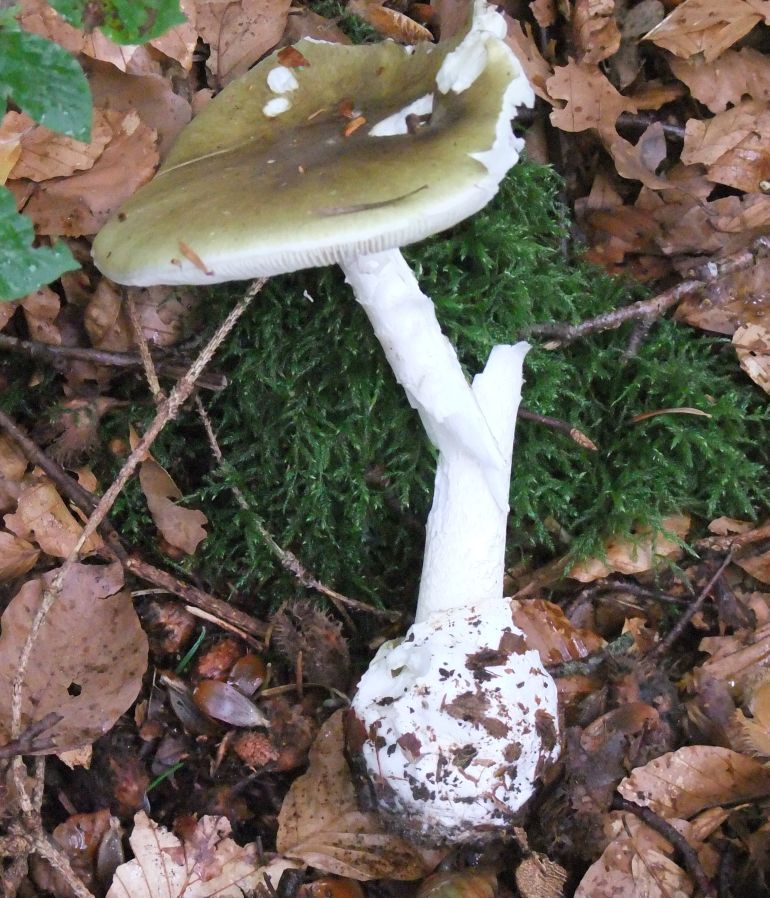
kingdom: Fungi
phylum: Basidiomycota
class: Agaricomycetes
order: Agaricales
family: Amanitaceae
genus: Amanita
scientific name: Amanita phalloides
